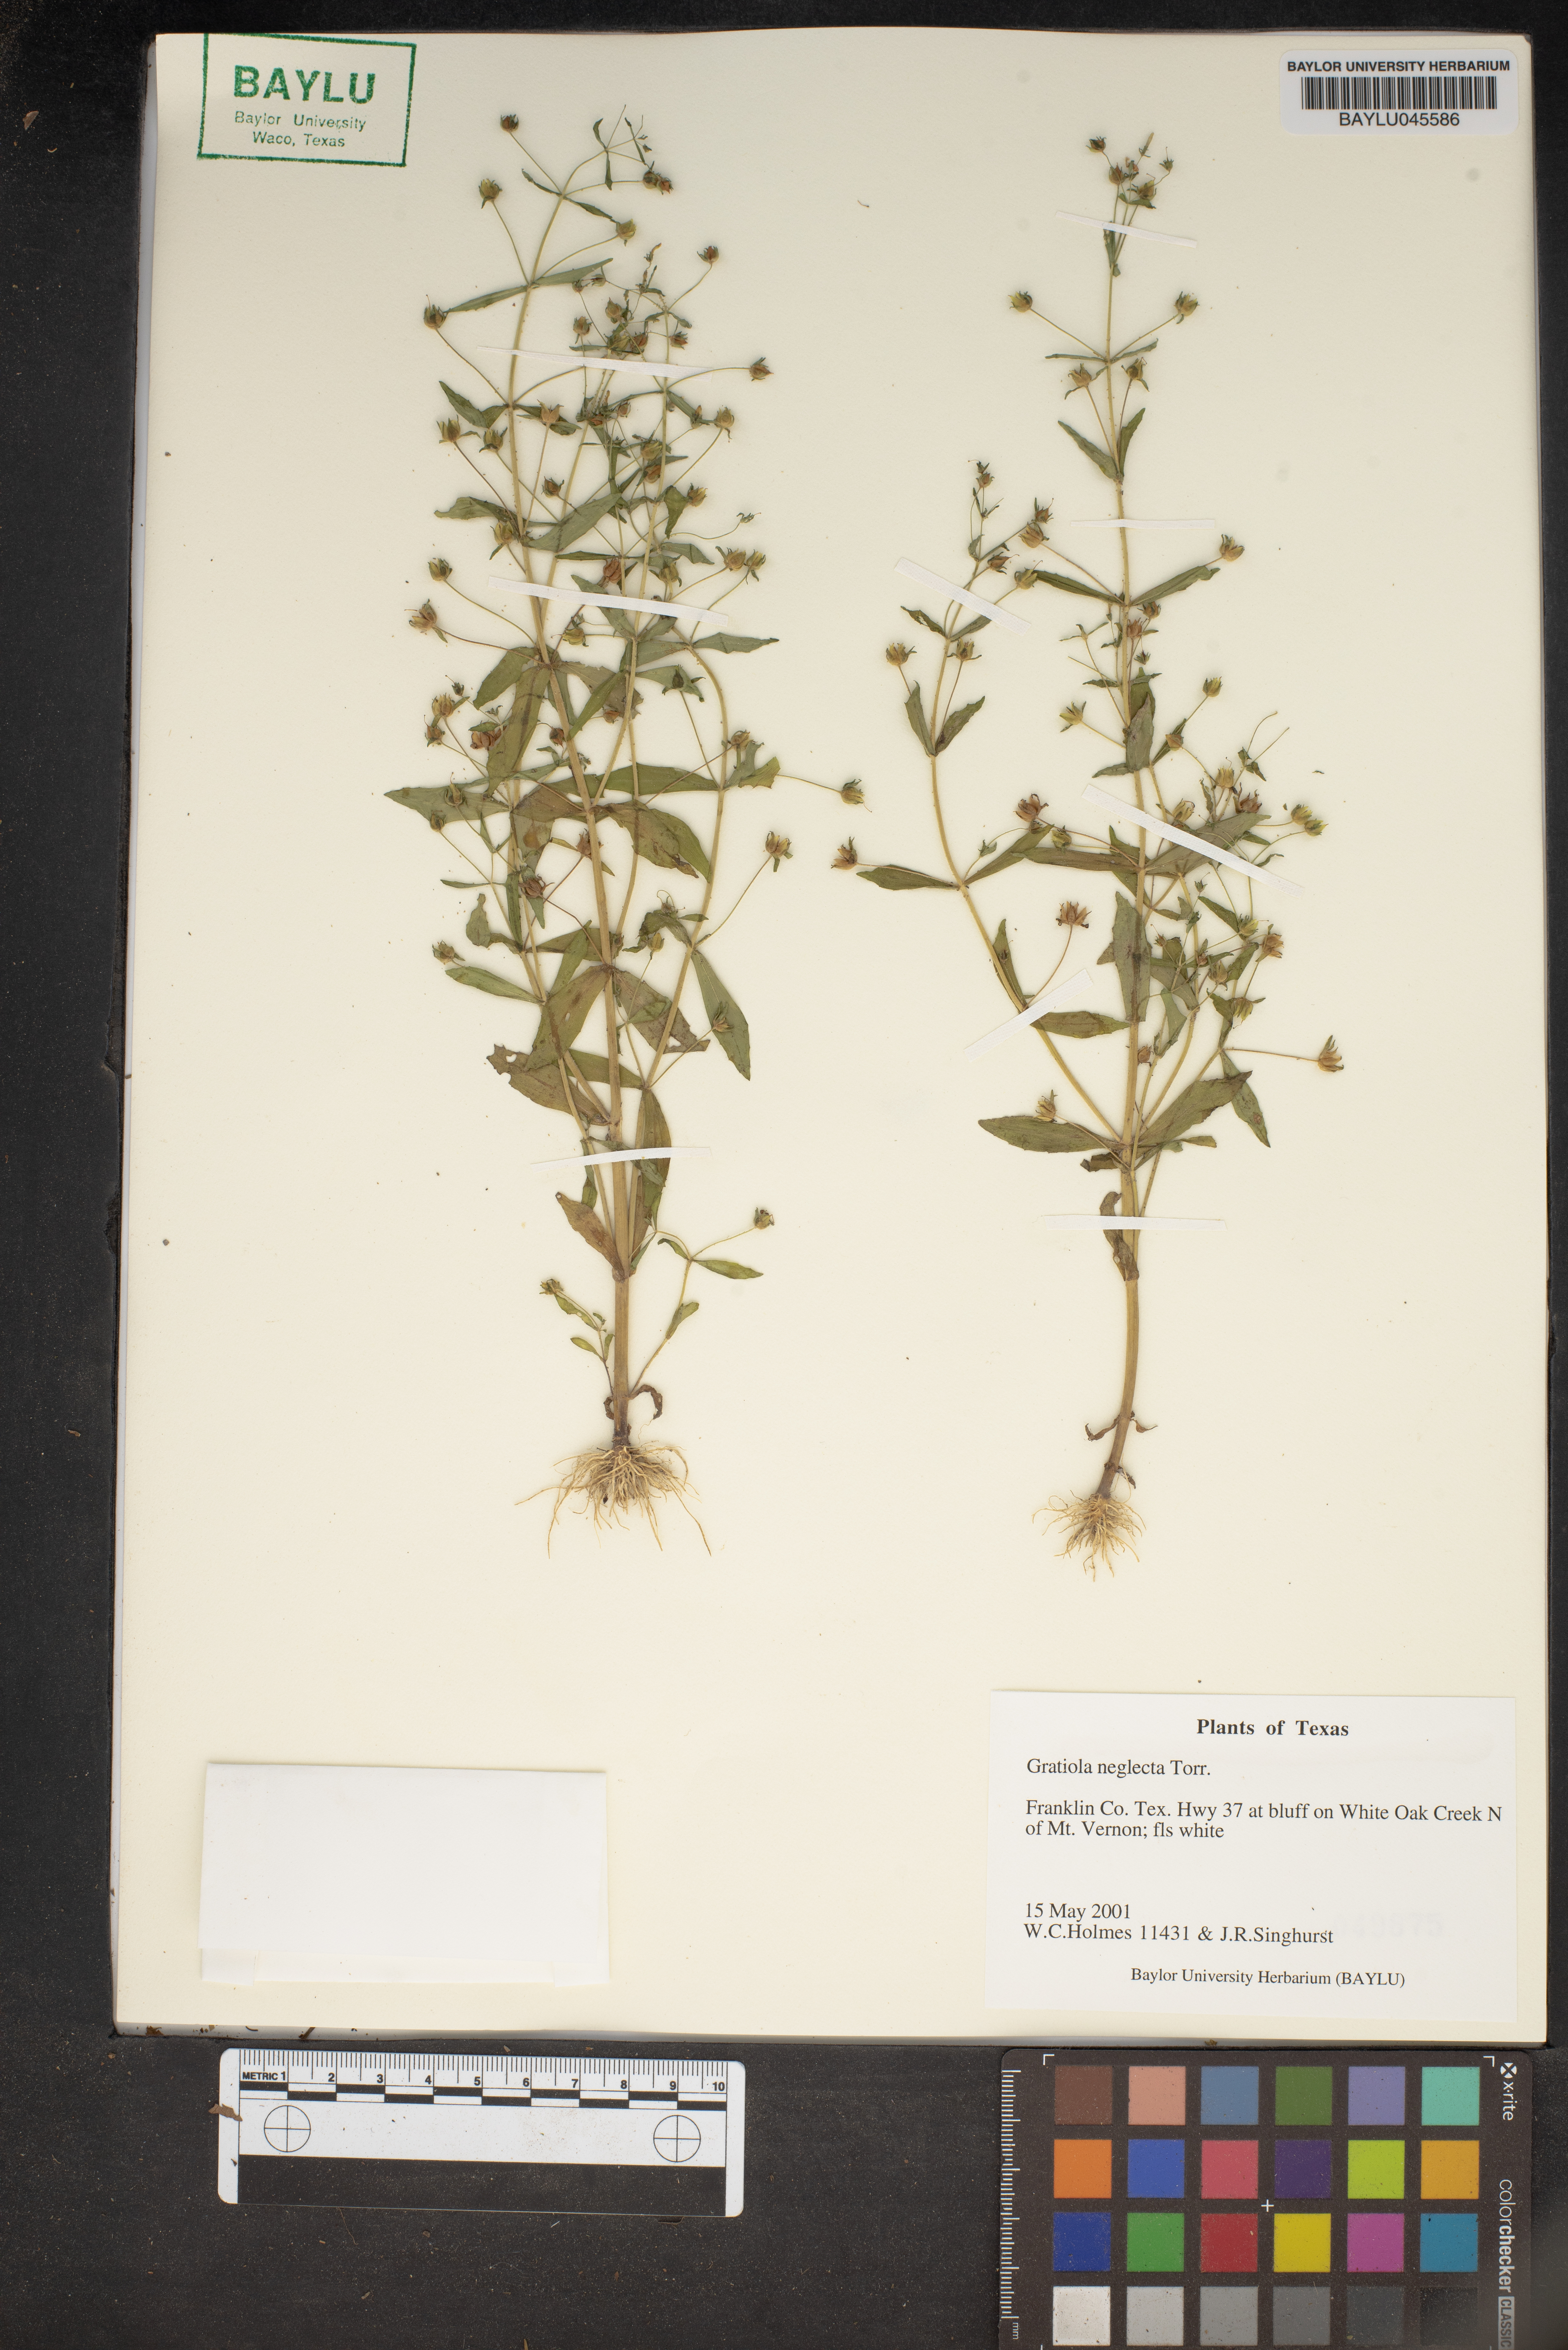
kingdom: Plantae
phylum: Tracheophyta
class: Magnoliopsida
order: Lamiales
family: Plantaginaceae
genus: Gratiola
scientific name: Gratiola neglecta
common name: American hedge-hyssop
